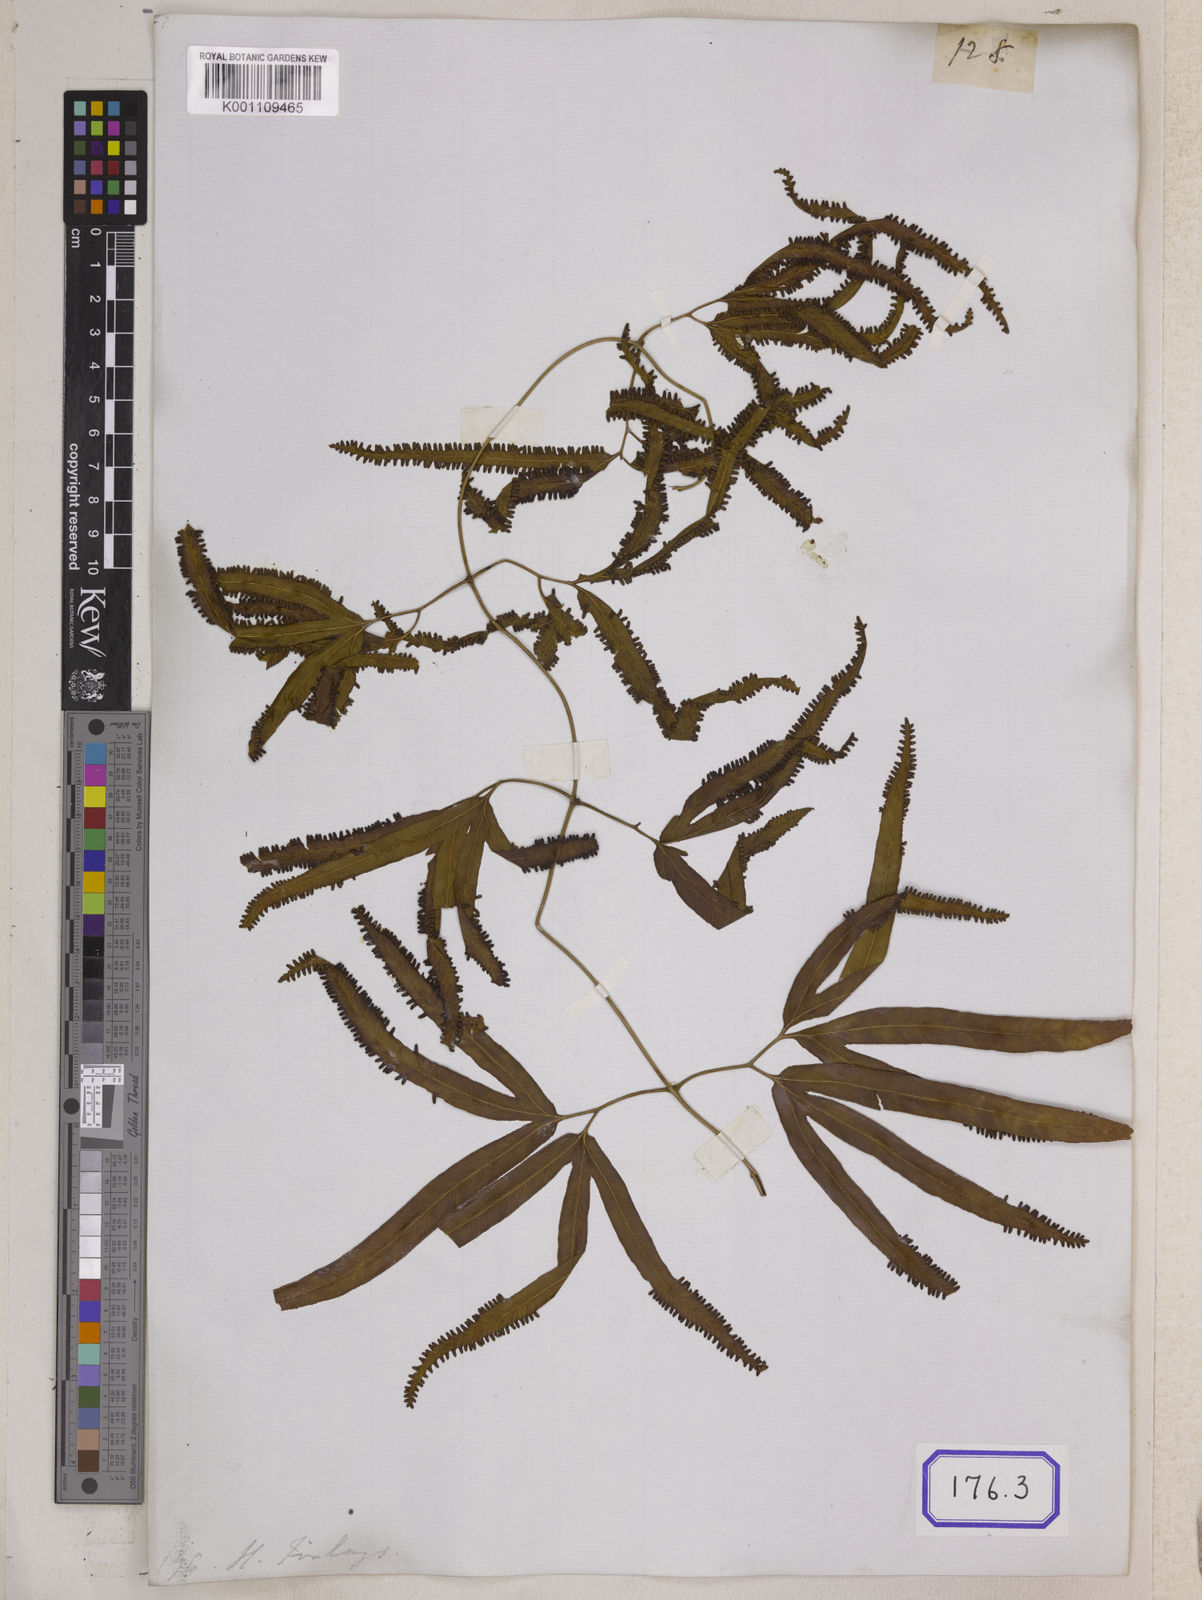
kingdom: Plantae
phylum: Tracheophyta
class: Polypodiopsida
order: Schizaeales
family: Lygodiaceae
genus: Lygodium
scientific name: Lygodium circinnatum
